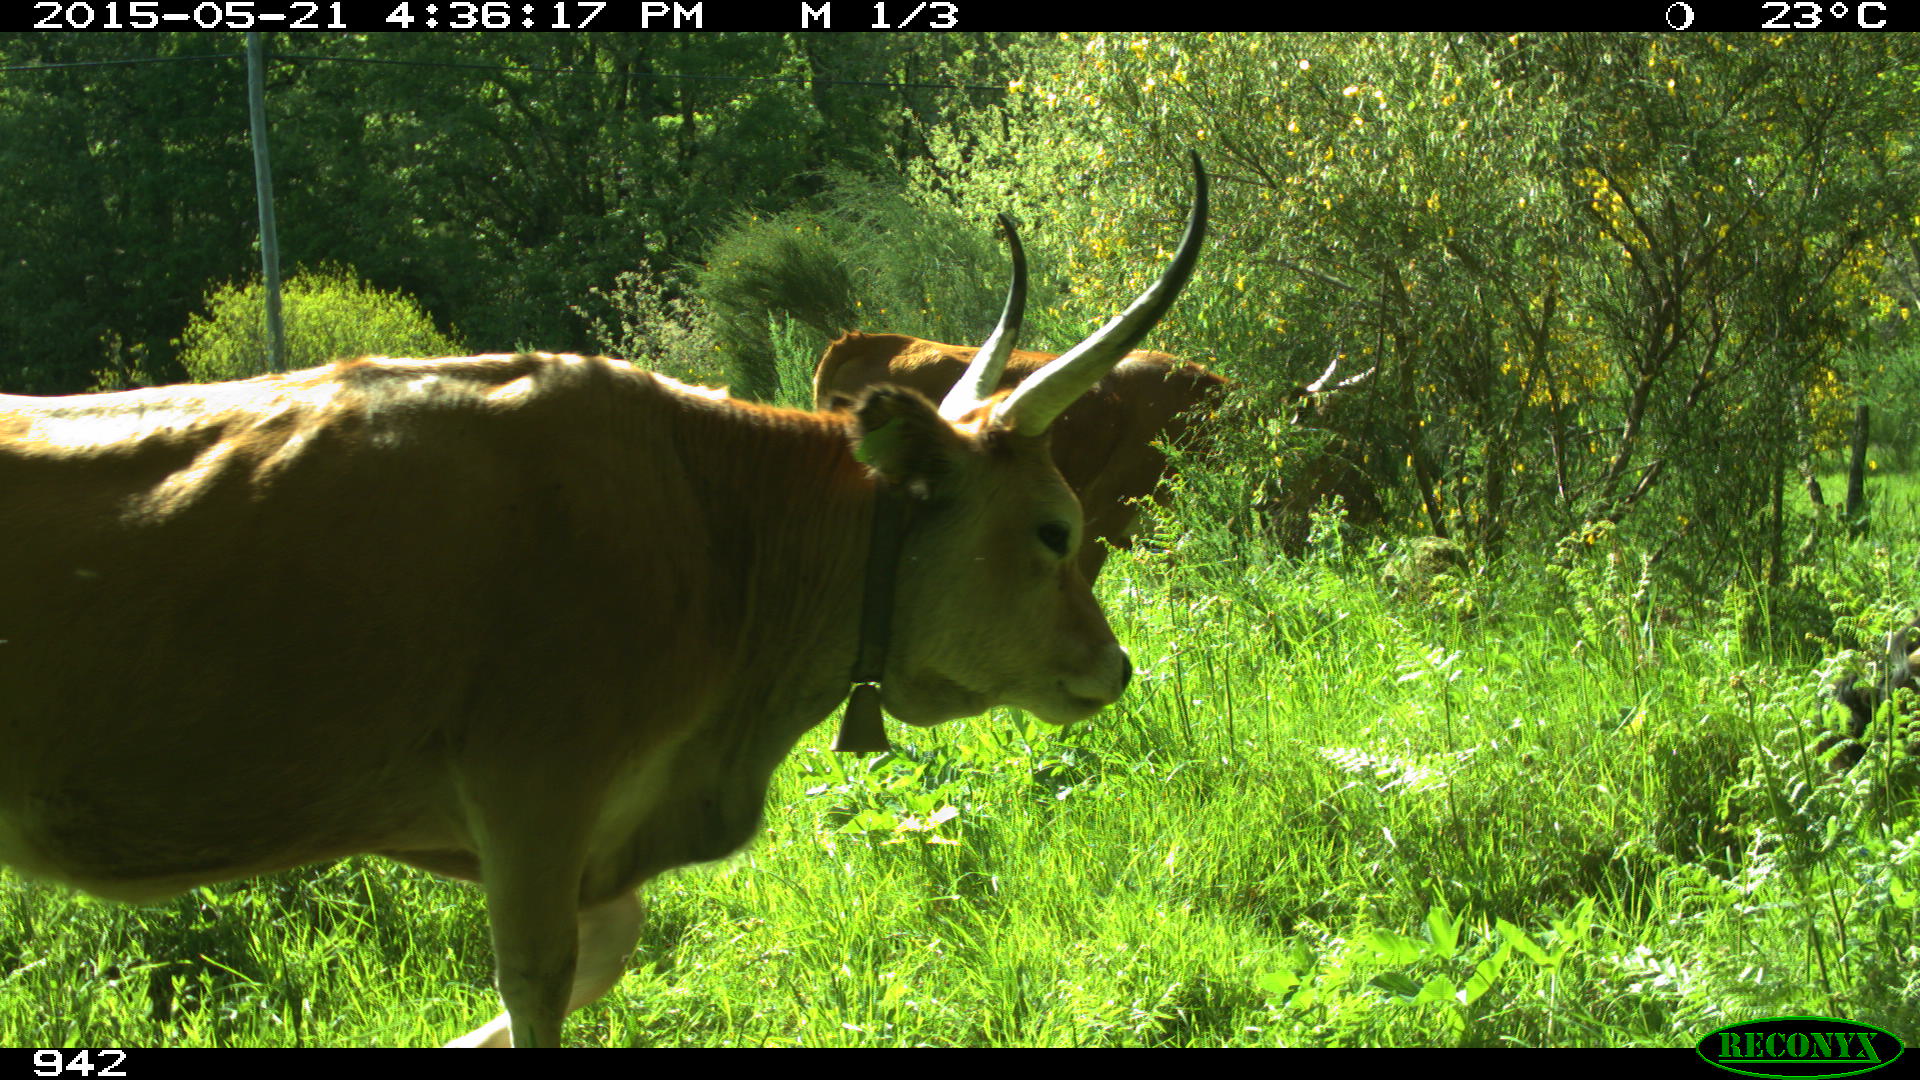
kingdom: Animalia
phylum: Chordata
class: Mammalia
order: Artiodactyla
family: Bovidae
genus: Bos
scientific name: Bos taurus
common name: Domesticated cattle
